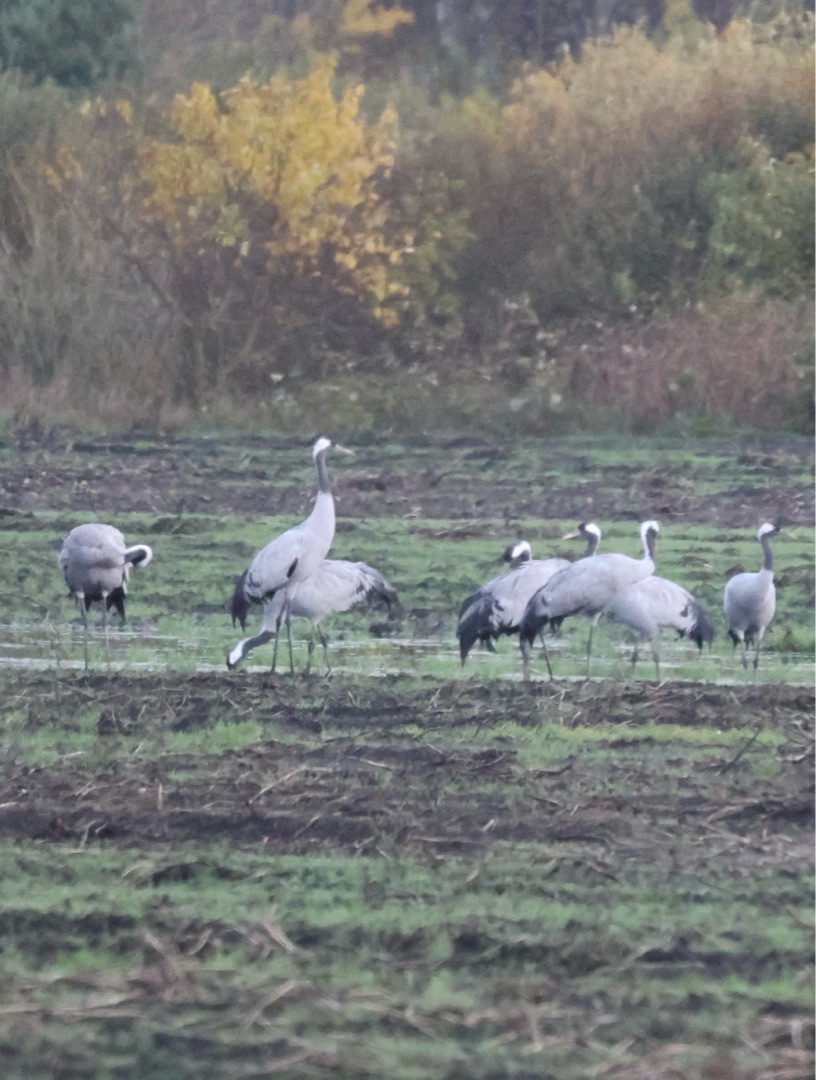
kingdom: Animalia
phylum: Chordata
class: Aves
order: Gruiformes
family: Gruidae
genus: Grus
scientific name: Grus grus
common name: Trane
